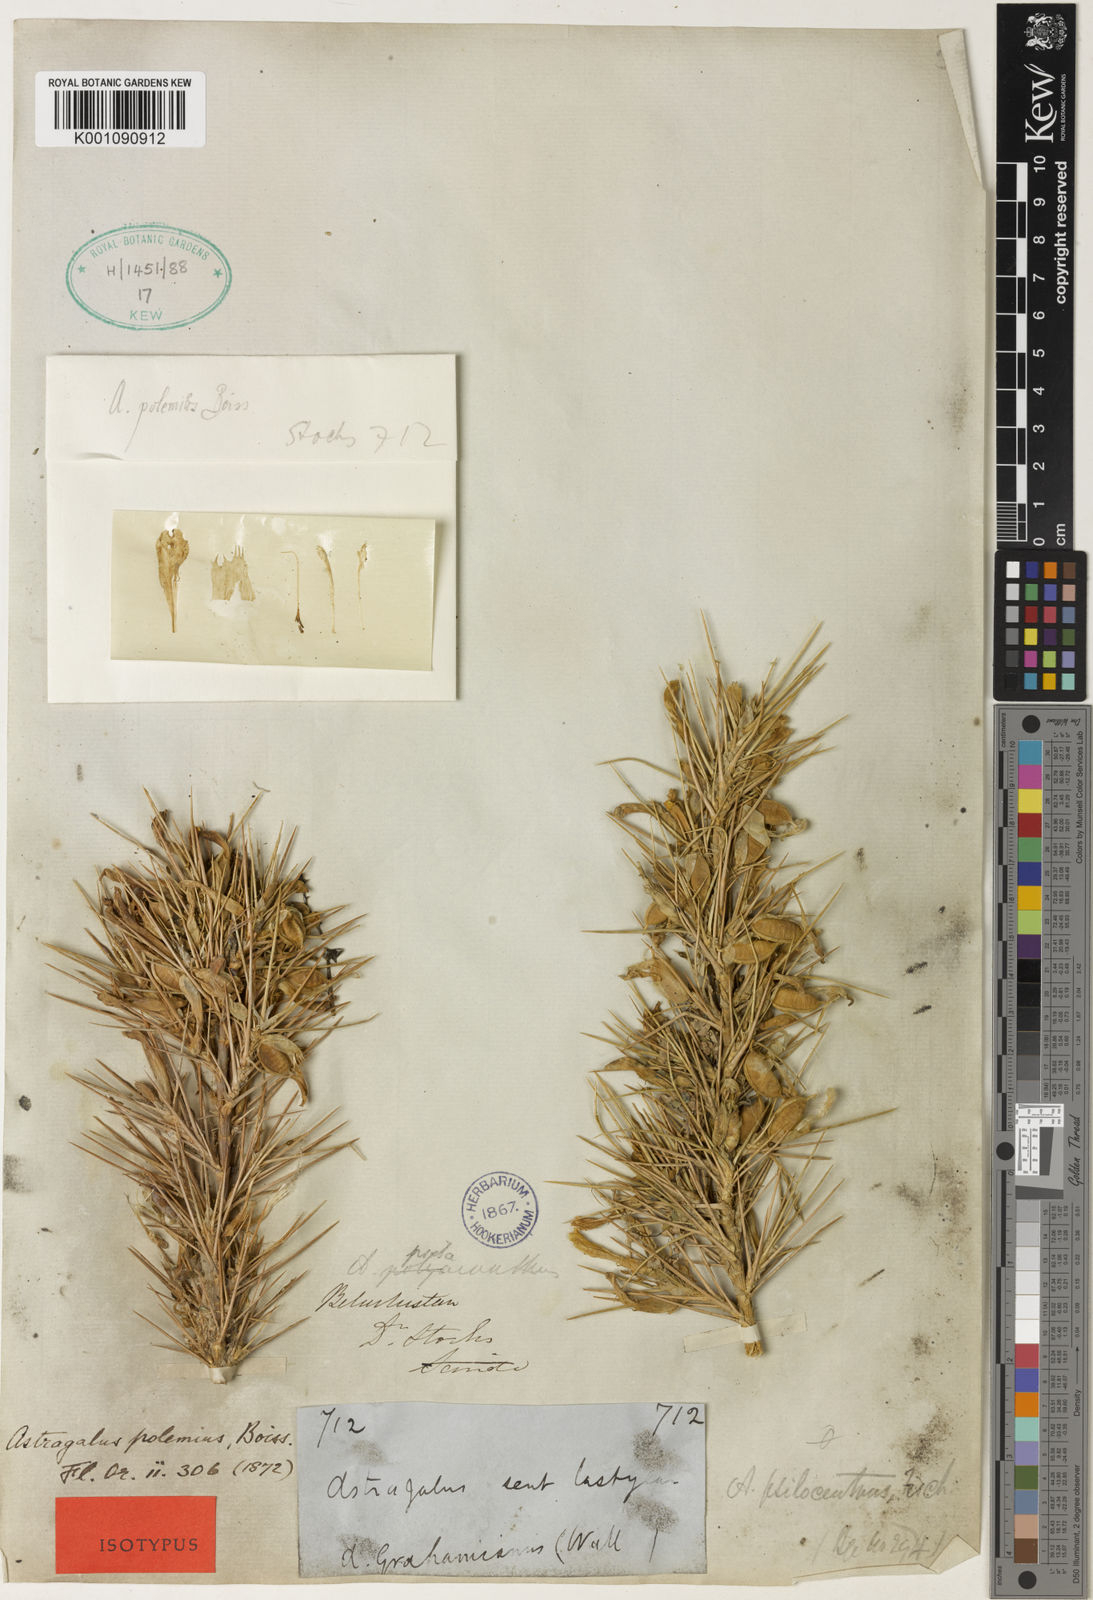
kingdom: Plantae
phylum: Tracheophyta
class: Magnoliopsida
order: Fabales
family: Fabaceae
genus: Astragalus
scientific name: Astragalus
